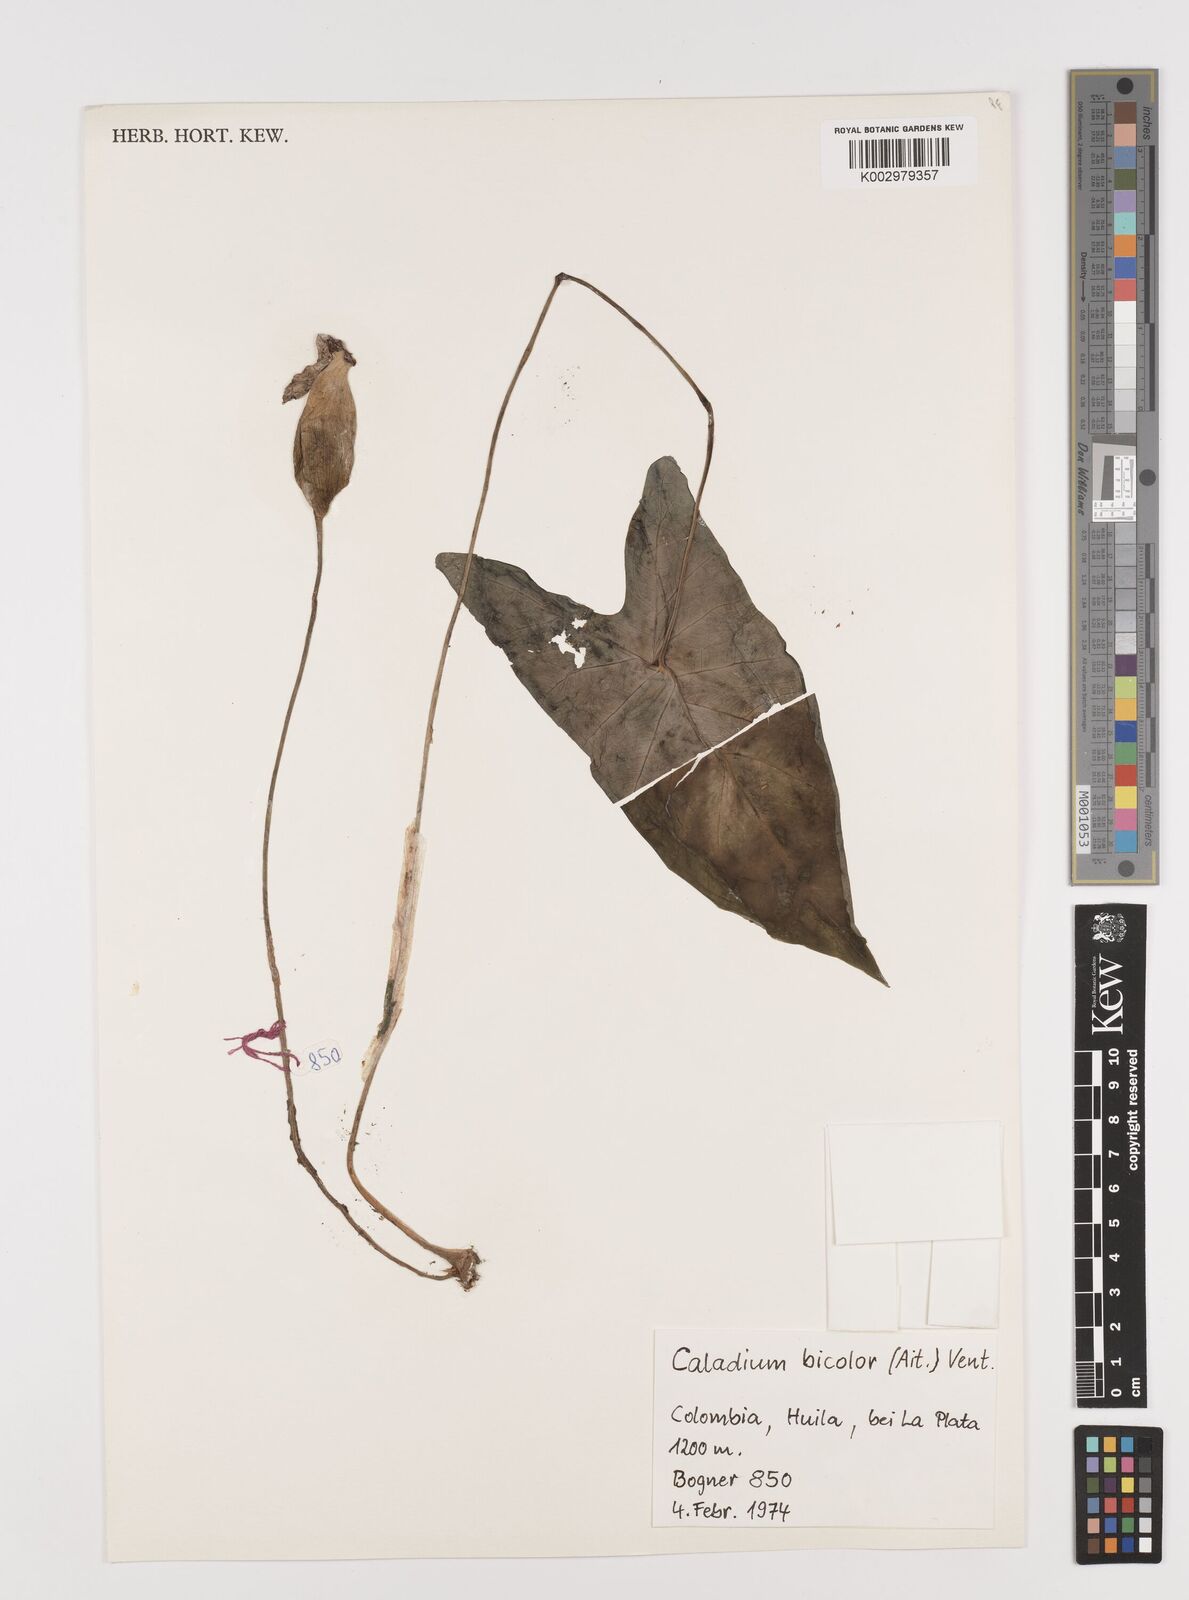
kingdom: Plantae
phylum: Tracheophyta
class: Liliopsida
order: Alismatales
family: Araceae
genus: Caladium
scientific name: Caladium bicolor
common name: Artist's pallet
